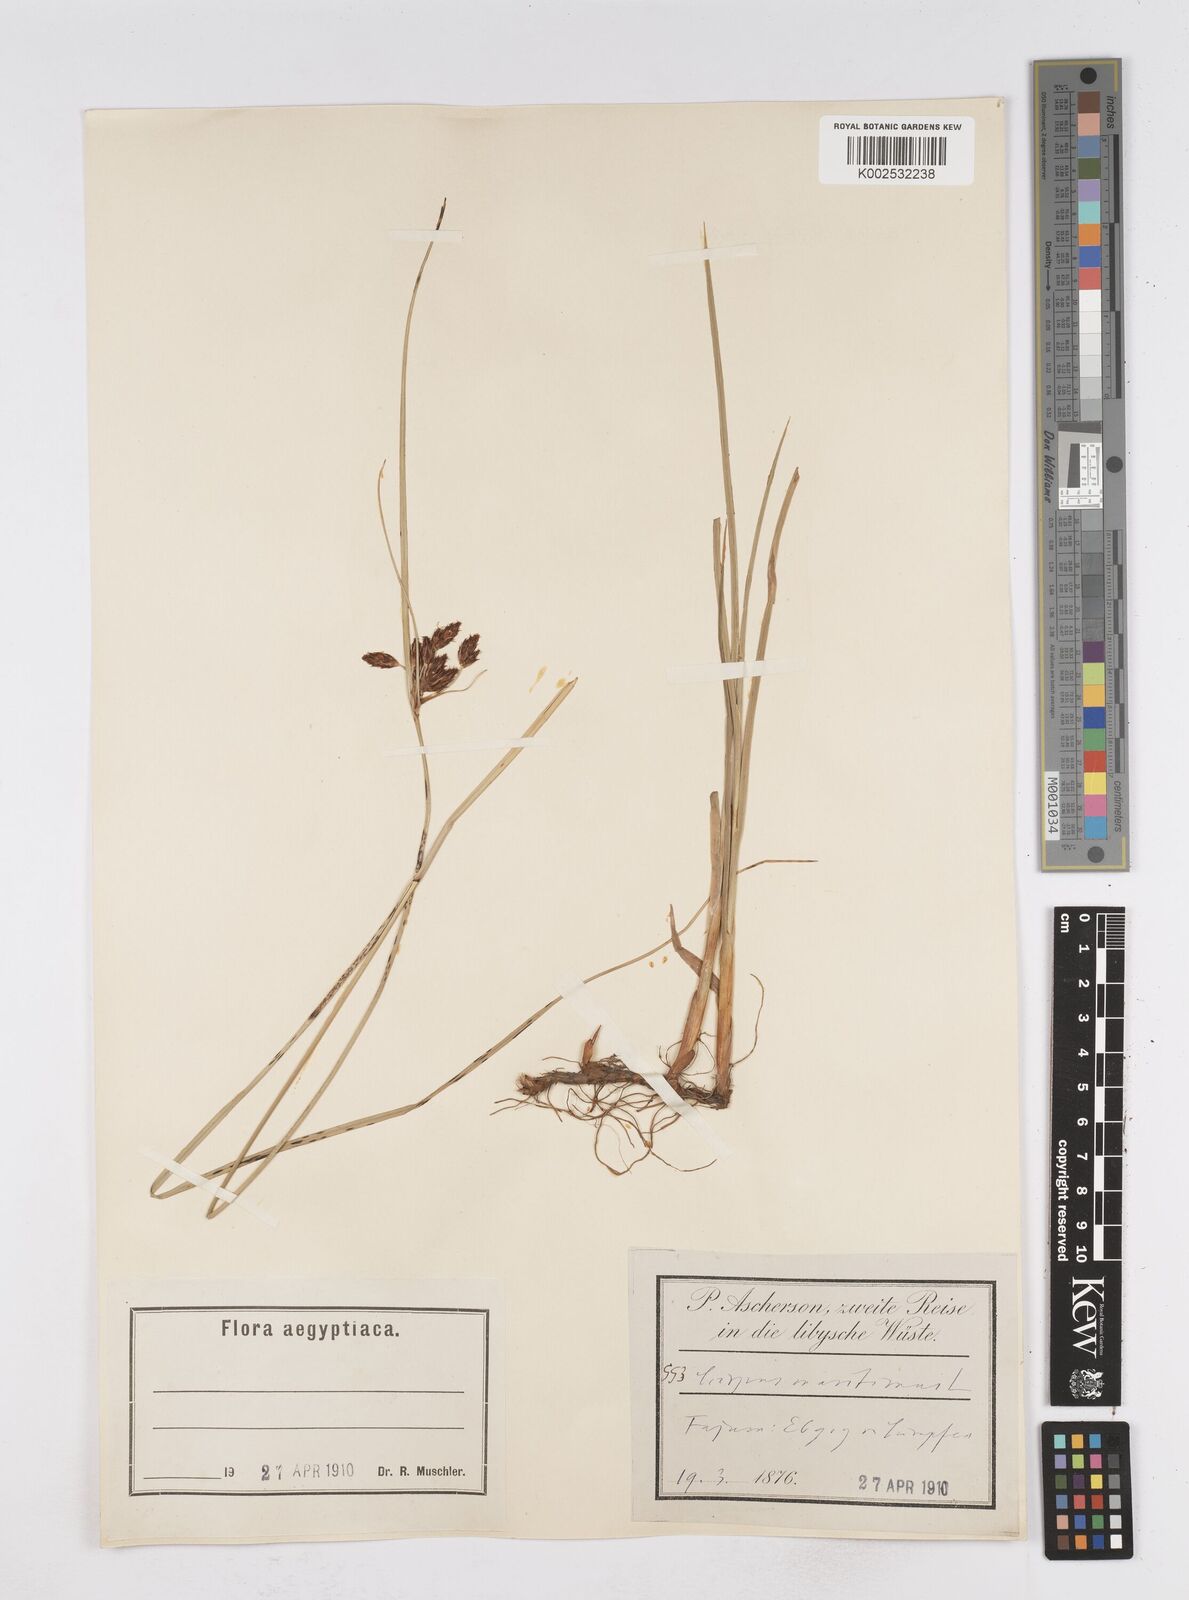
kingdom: Plantae
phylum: Tracheophyta
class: Liliopsida
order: Poales
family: Cyperaceae
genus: Bolboschoenus
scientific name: Bolboschoenus maritimus
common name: Sea club-rush
